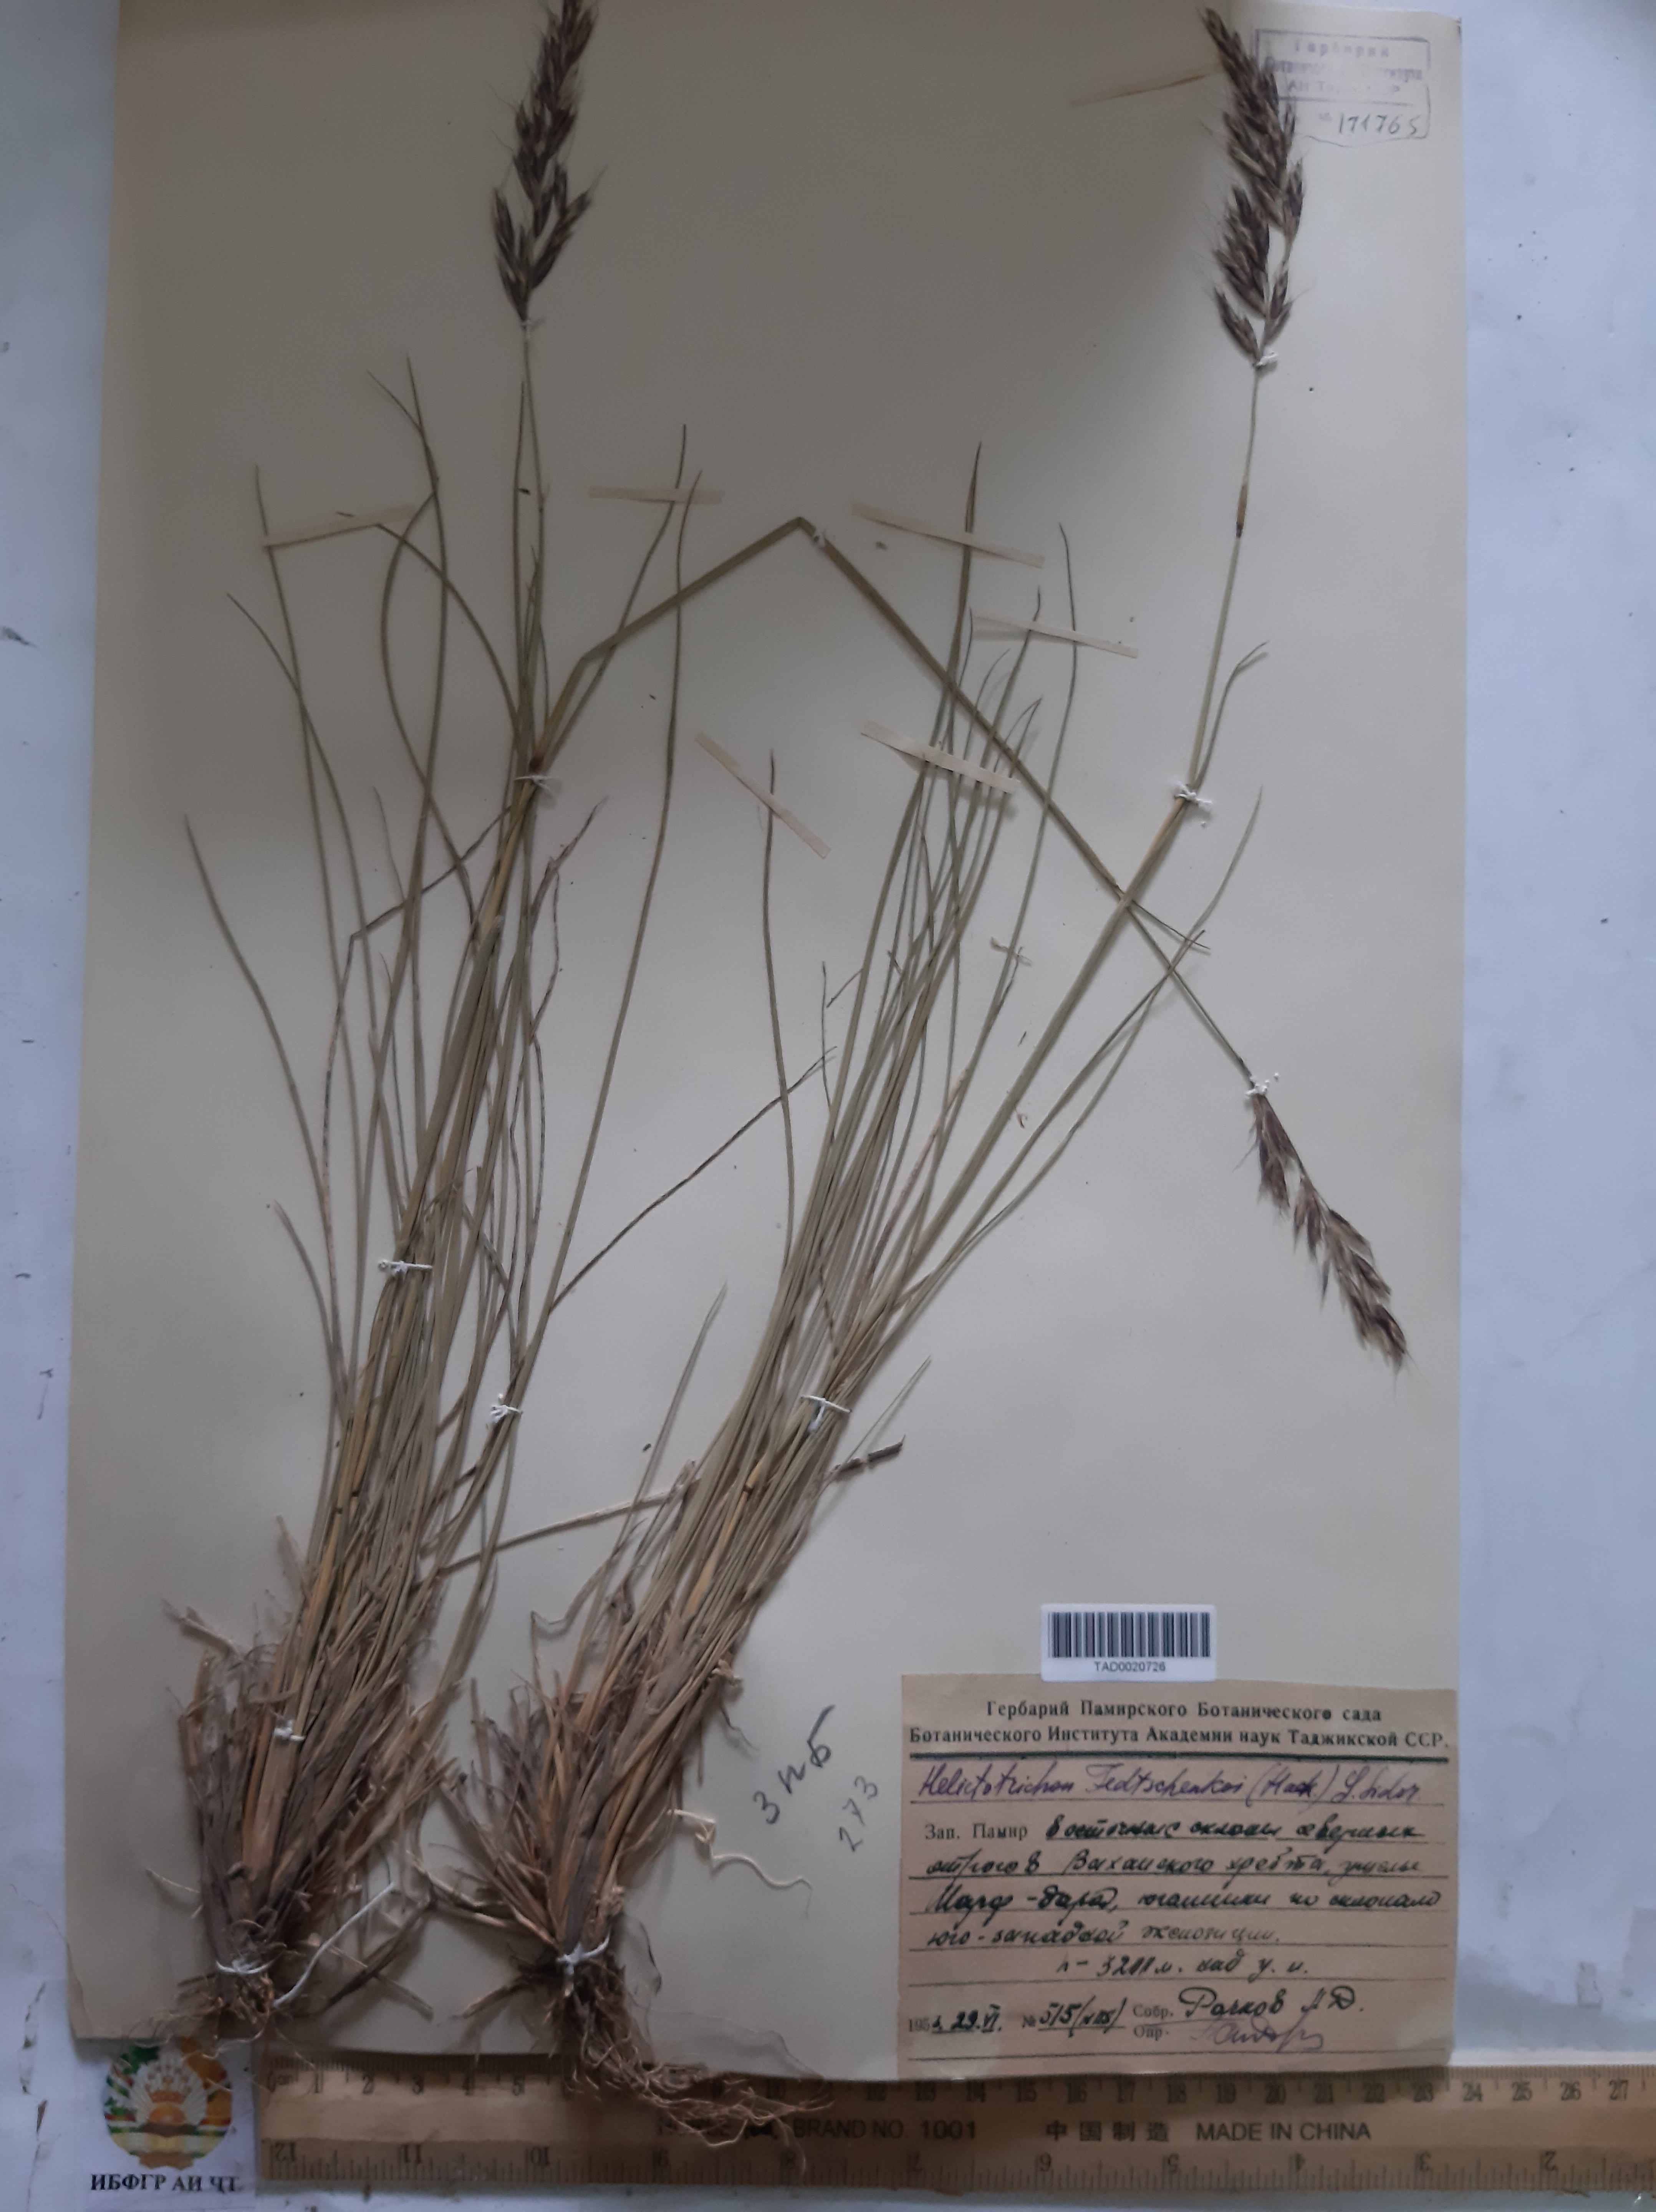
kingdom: Plantae
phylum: Tracheophyta
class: Liliopsida
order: Poales
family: Poaceae
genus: Helictotrichon
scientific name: Helictotrichon fedtschenkoi
